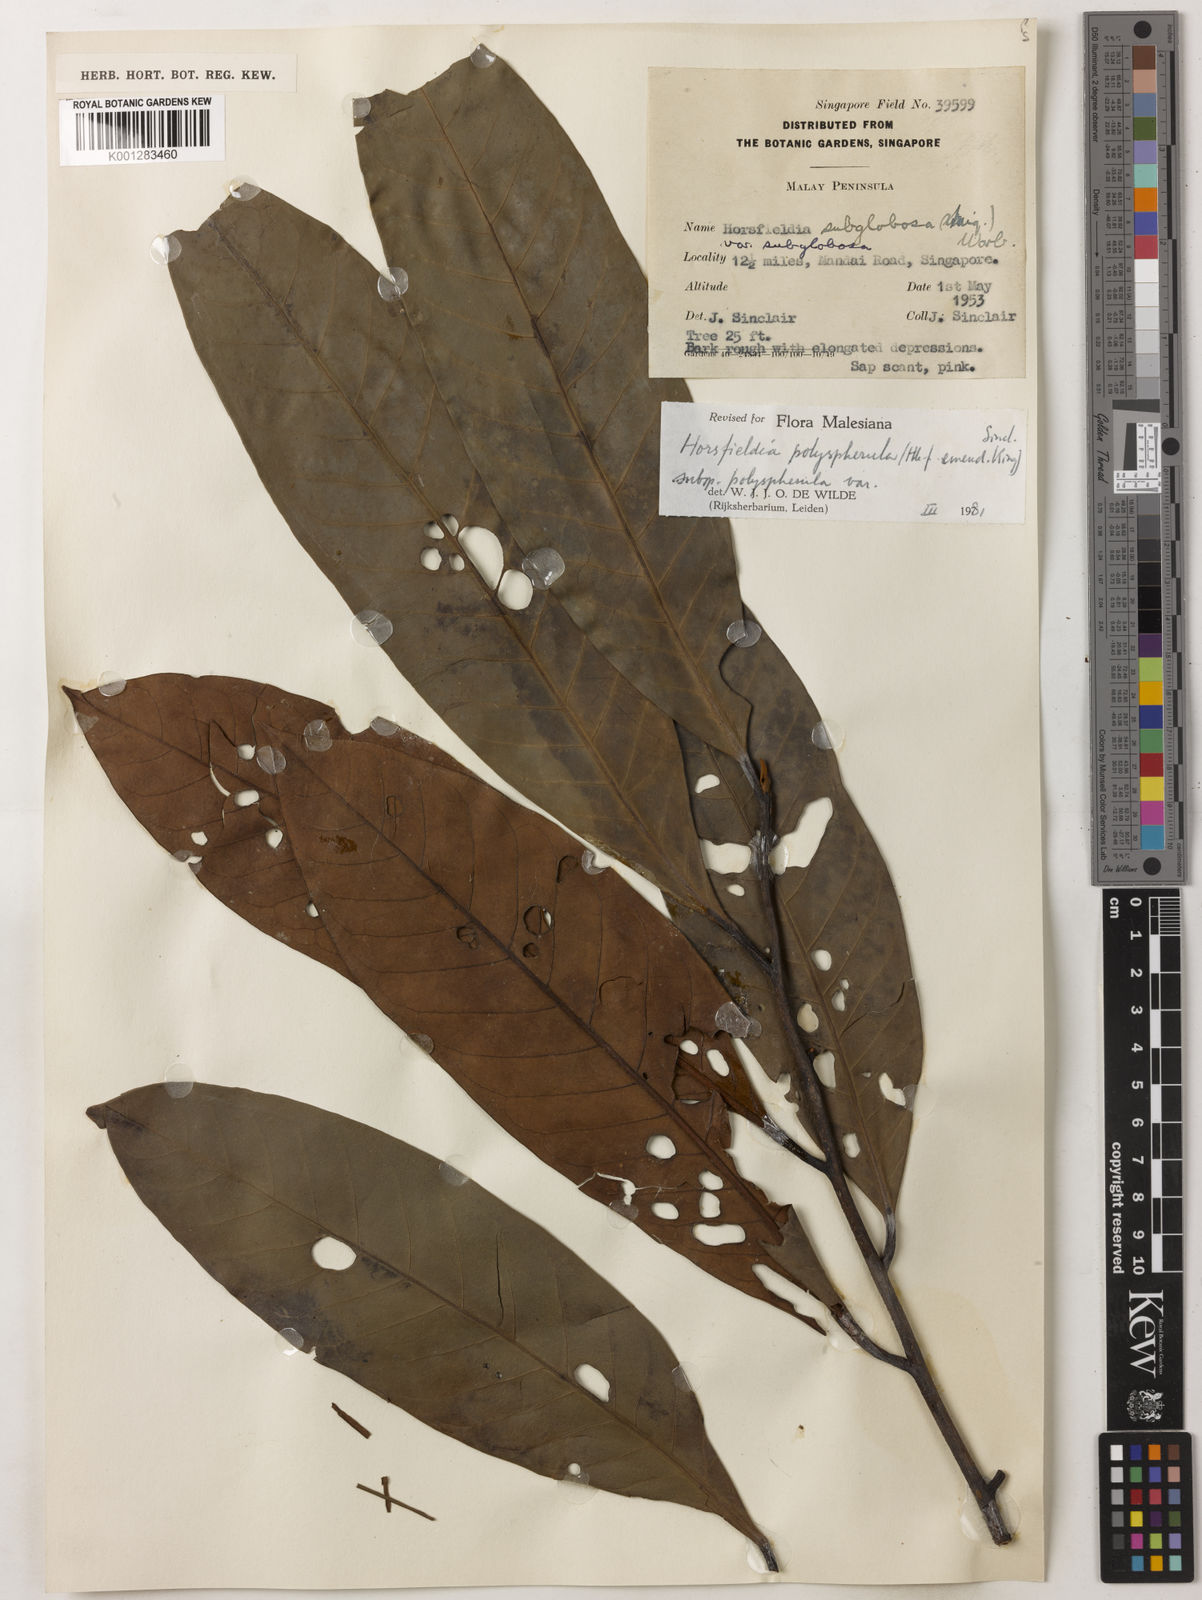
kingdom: Plantae
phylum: Tracheophyta
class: Magnoliopsida
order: Magnoliales
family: Myristicaceae
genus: Horsfieldia
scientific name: Horsfieldia polyspherula
